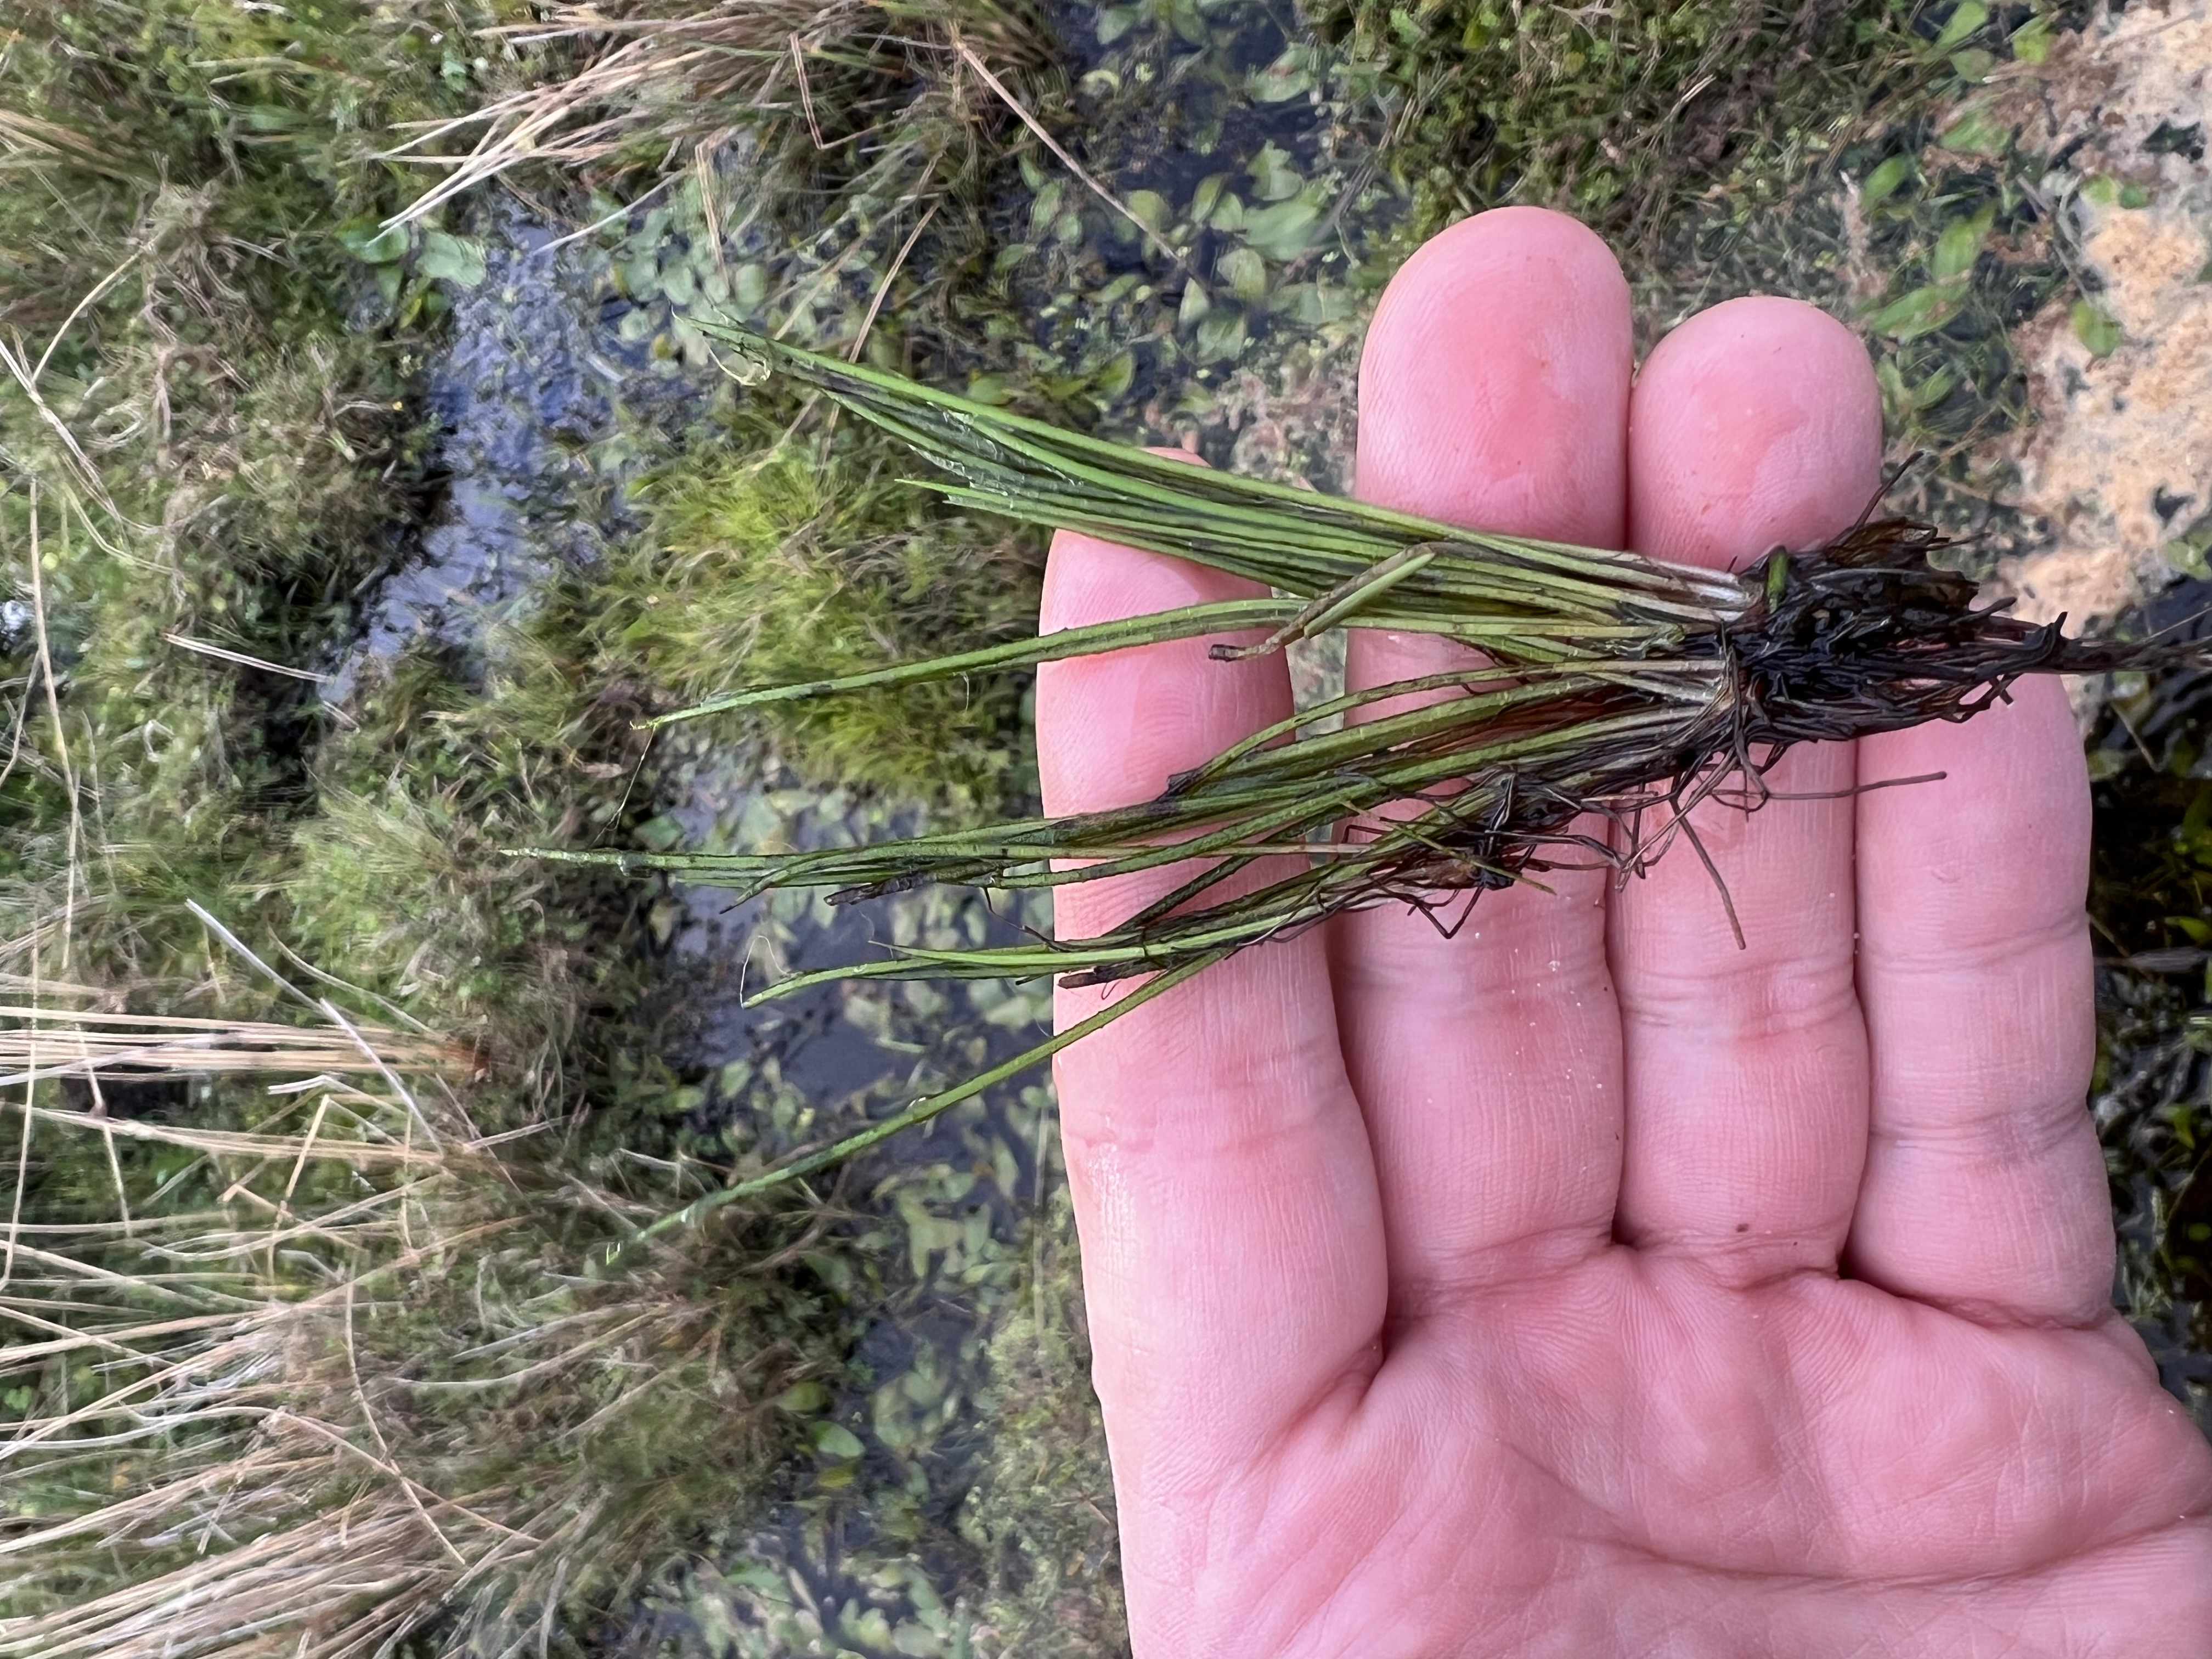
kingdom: Plantae
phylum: Tracheophyta
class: Lycopodiopsida
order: Isoetales
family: Isoetaceae
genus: Isoetes
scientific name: Isoetes lacustris
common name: Sortgrøn brasenføde
